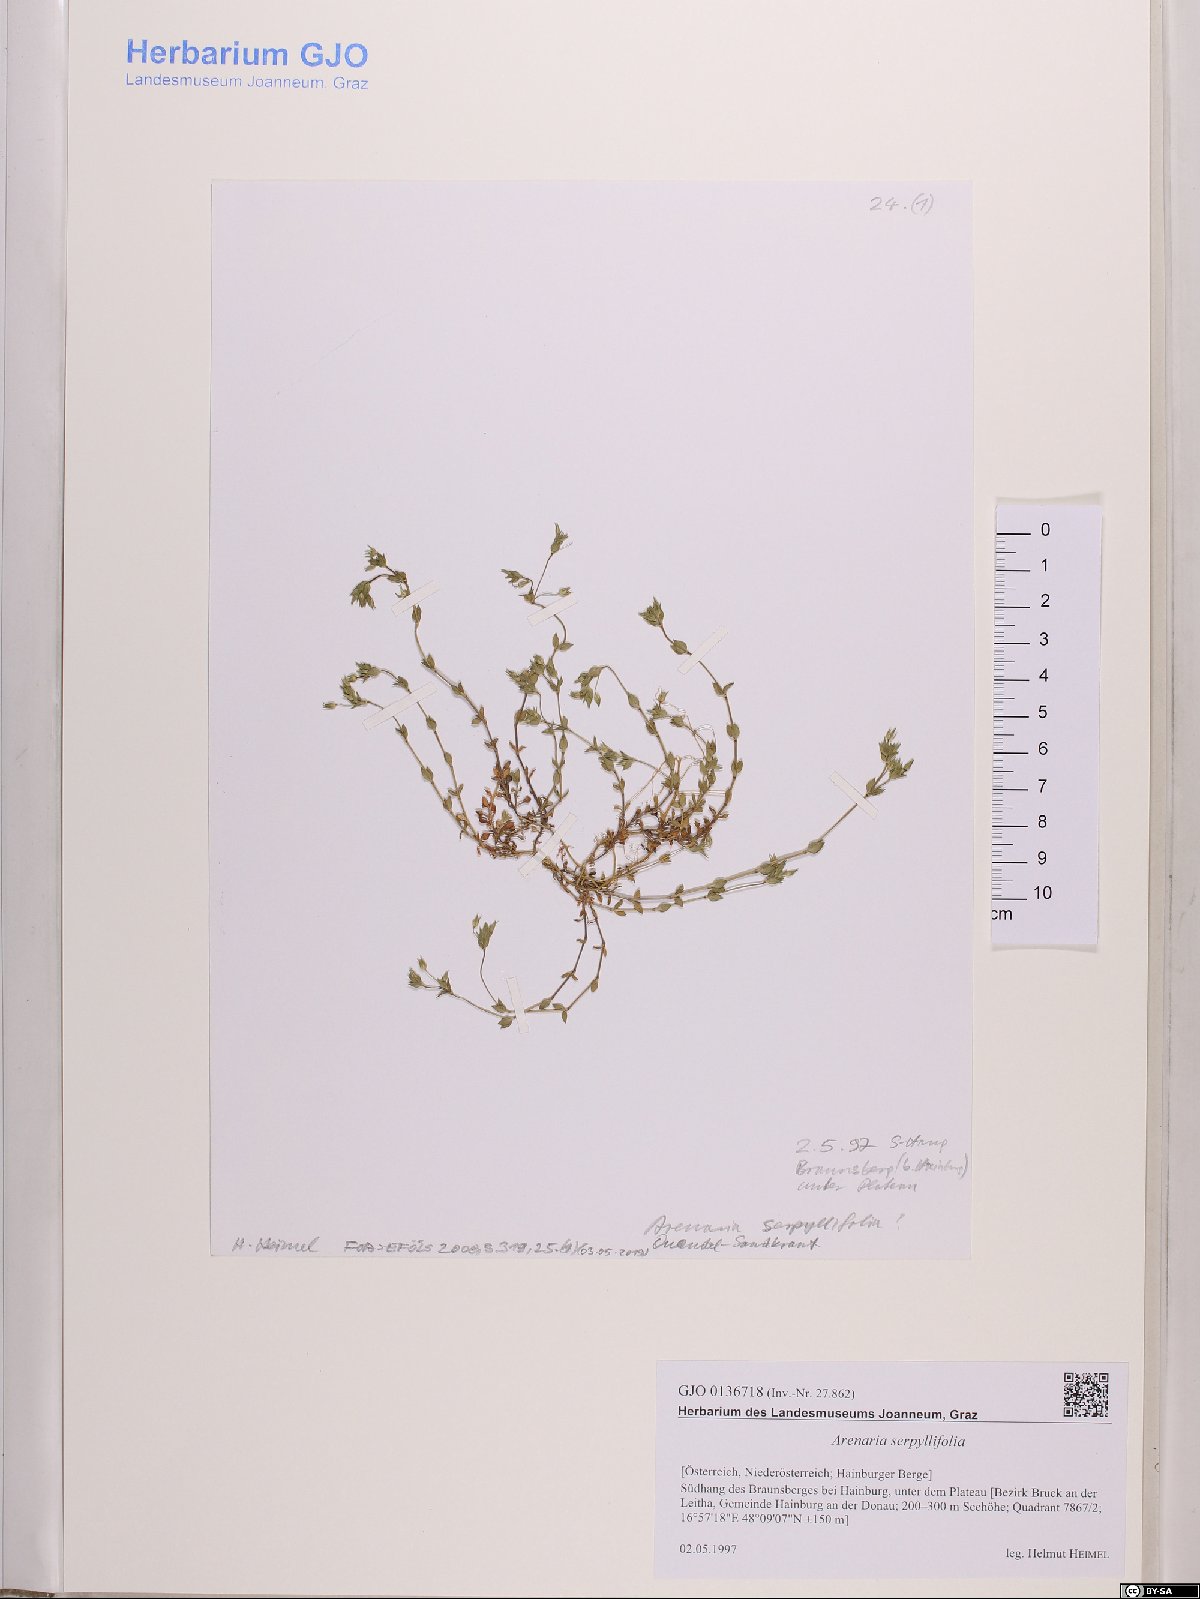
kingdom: Plantae
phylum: Tracheophyta
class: Magnoliopsida
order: Caryophyllales
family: Caryophyllaceae
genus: Arenaria
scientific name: Arenaria serpyllifolia
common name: Thyme-leaved sandwort
